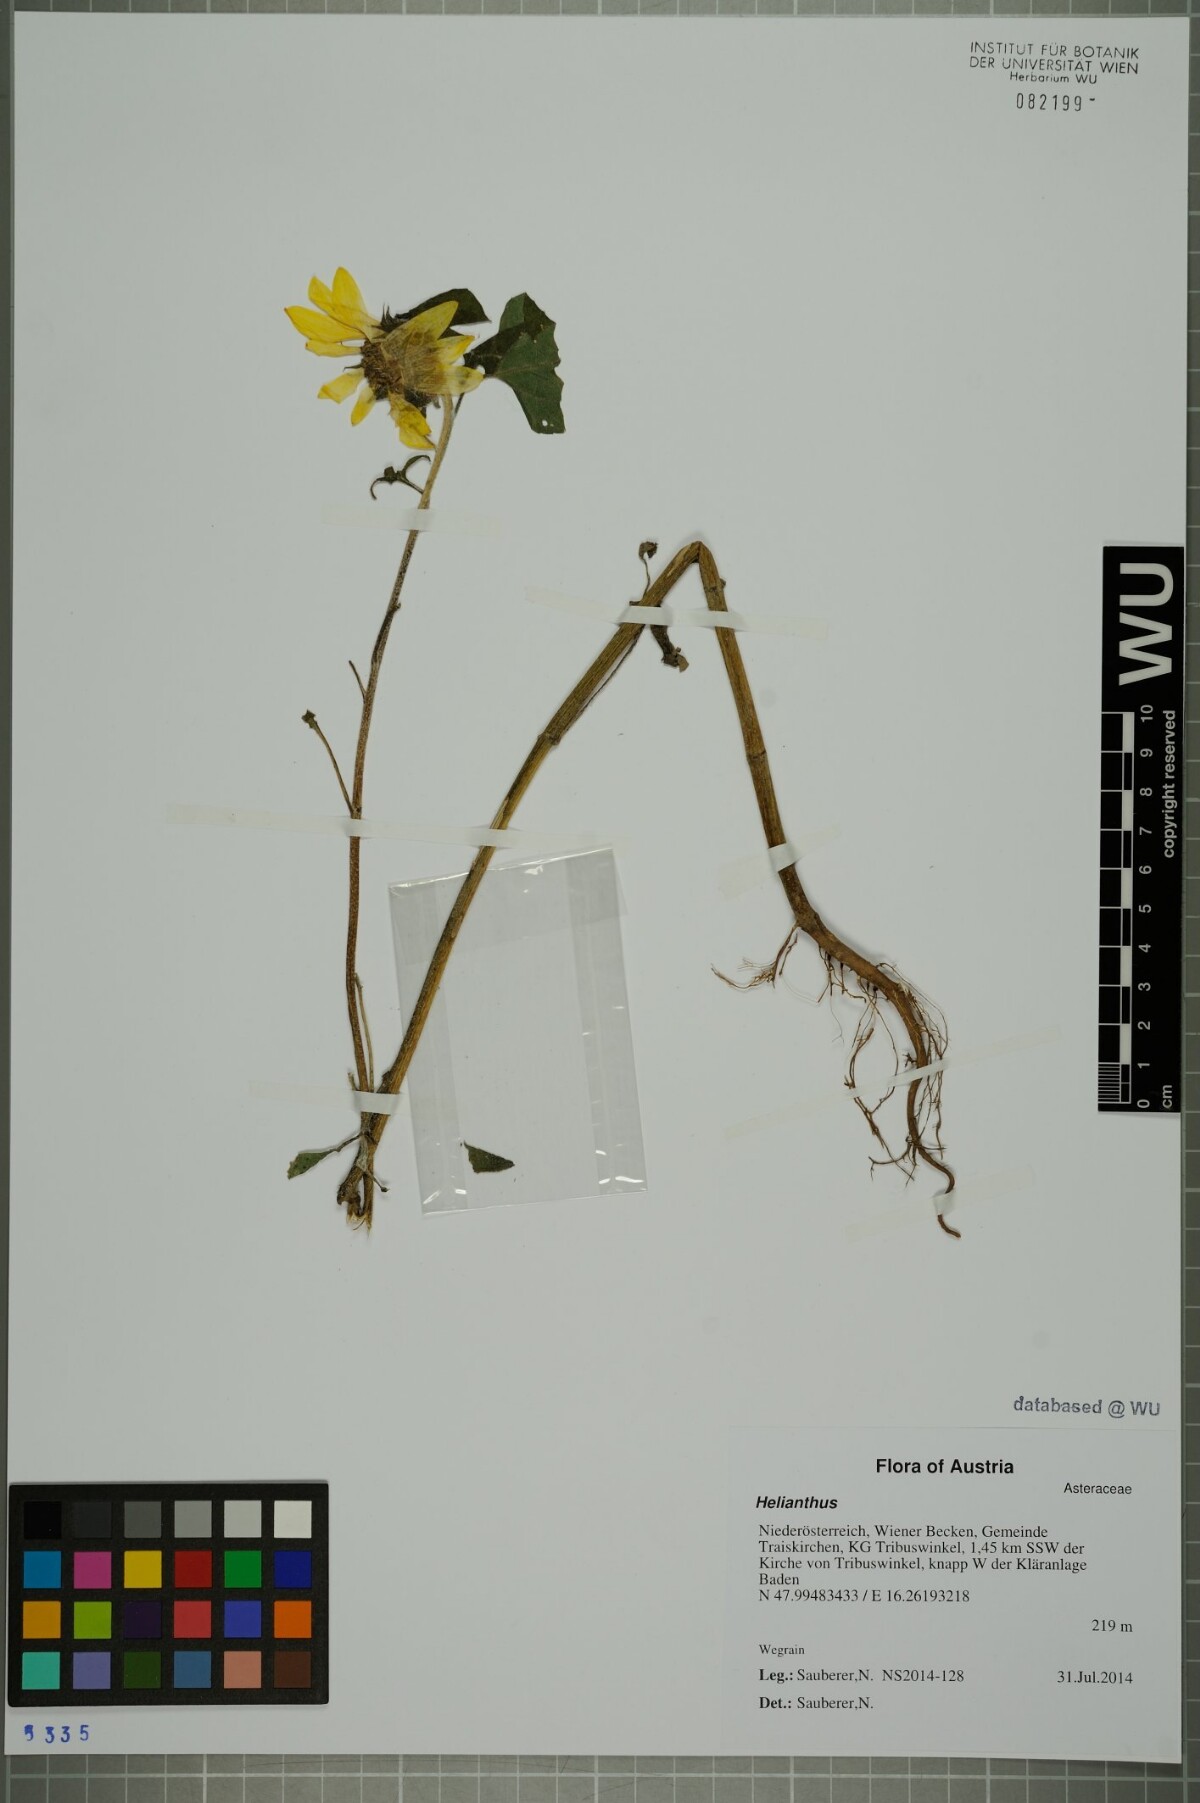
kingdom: Plantae
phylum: Tracheophyta
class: Magnoliopsida
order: Asterales
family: Asteraceae
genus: Helianthus
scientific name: Helianthus
